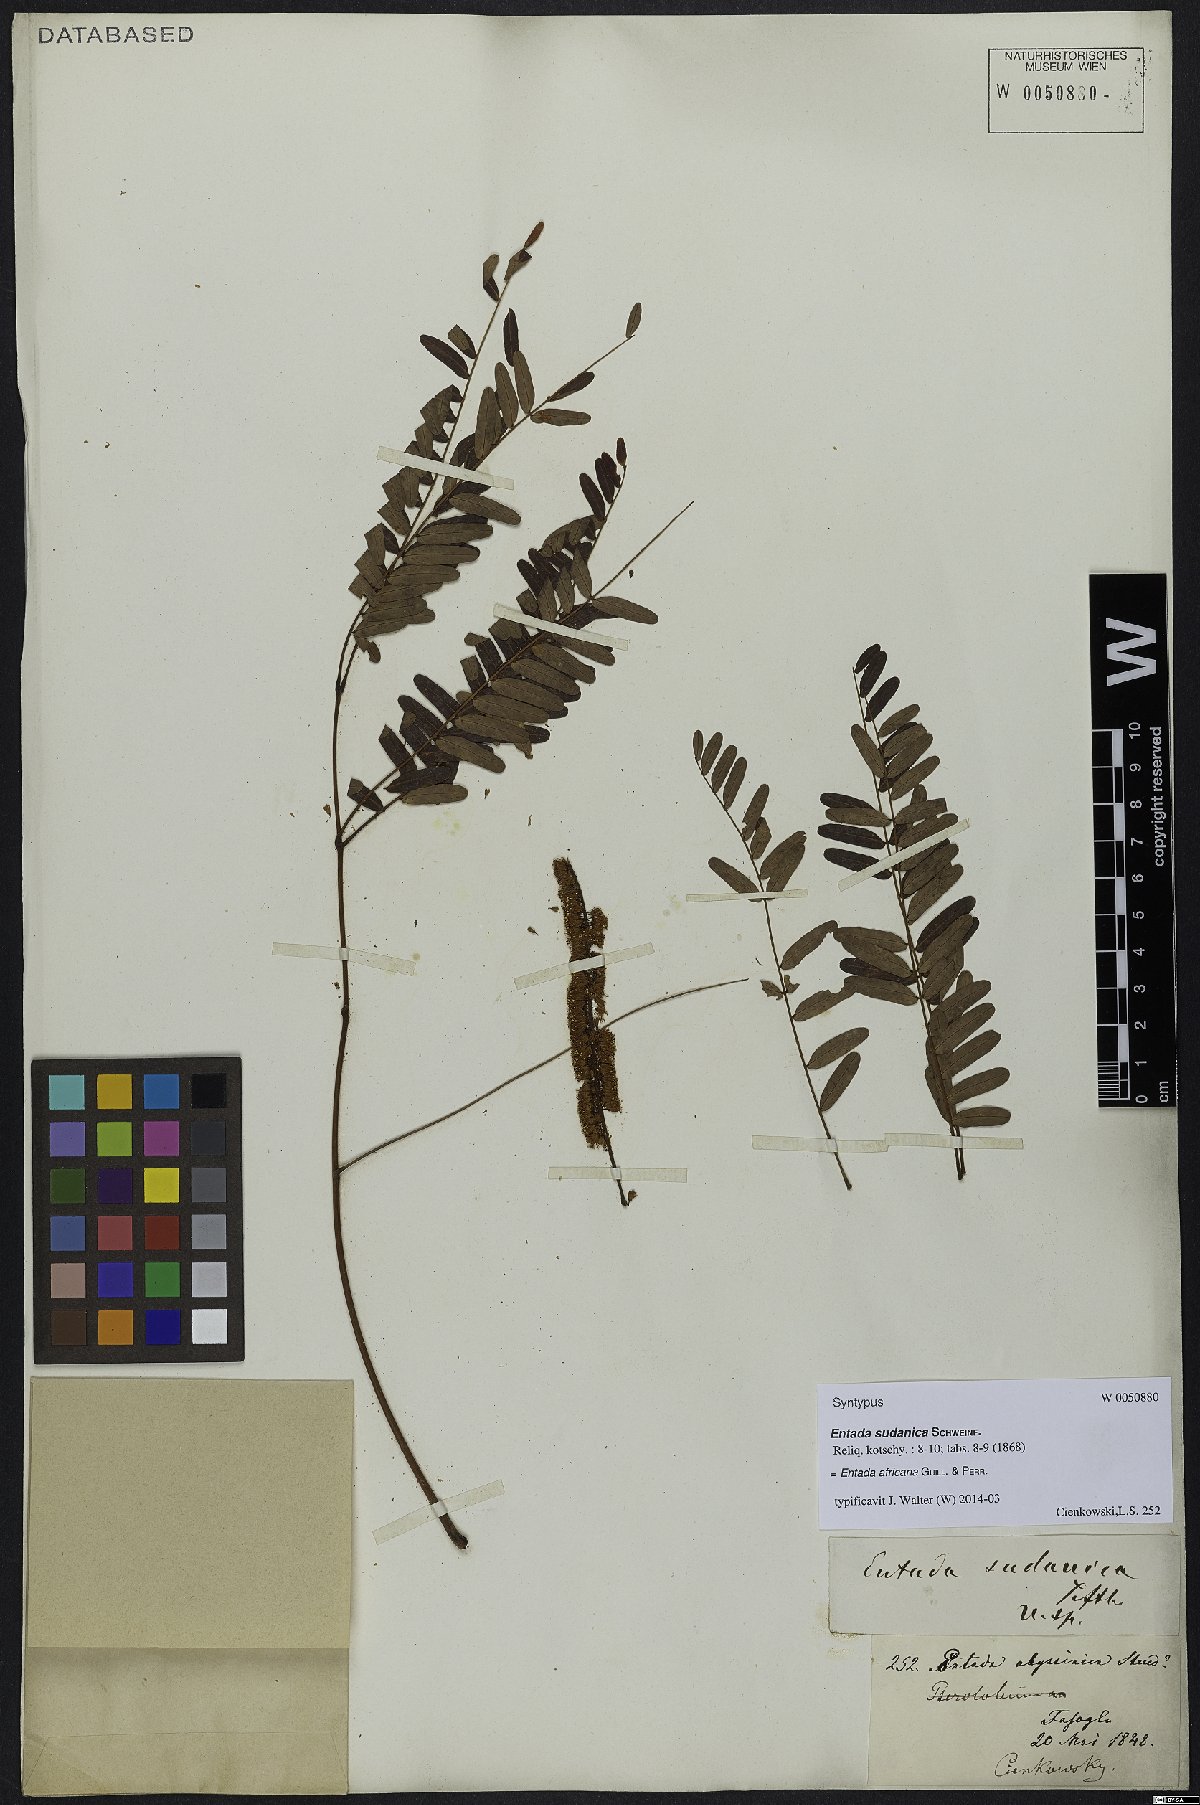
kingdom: Plantae
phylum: Tracheophyta
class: Magnoliopsida
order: Fabales
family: Fabaceae
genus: Entada
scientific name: Entada africana
